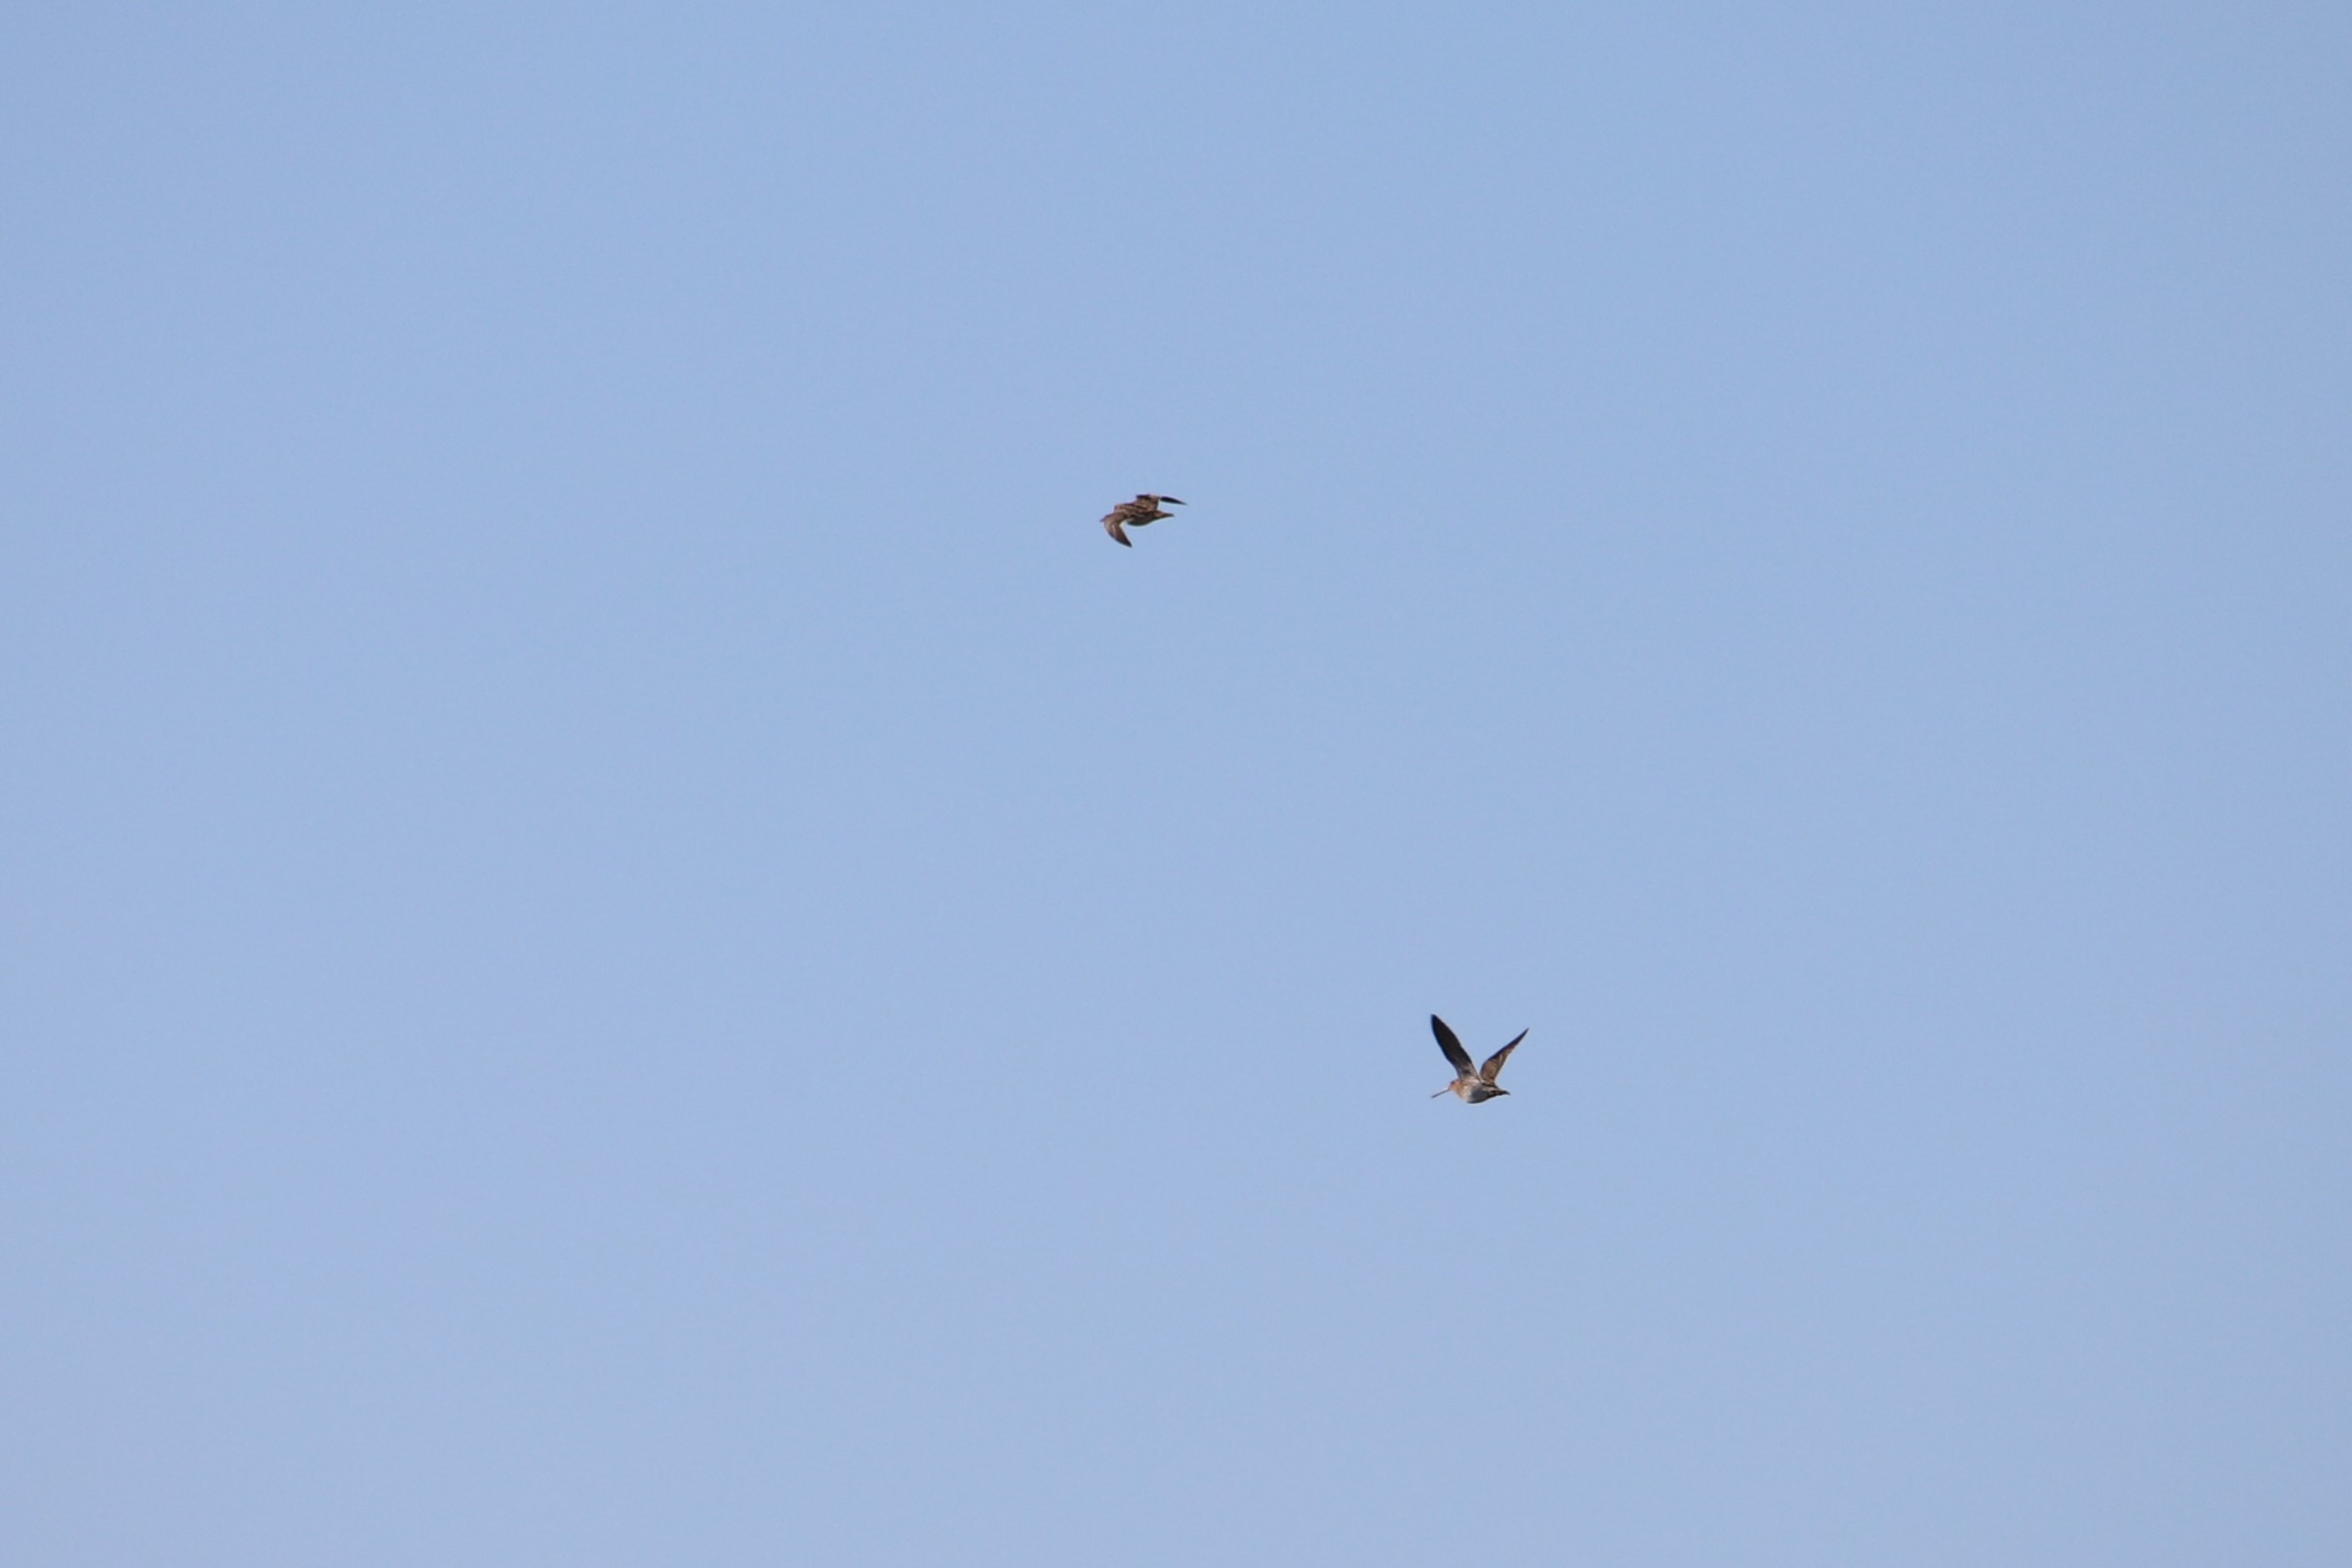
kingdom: Animalia
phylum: Chordata
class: Aves
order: Charadriiformes
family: Scolopacidae
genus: Gallinago
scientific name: Gallinago gallinago
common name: Dobbeltbekkasin
